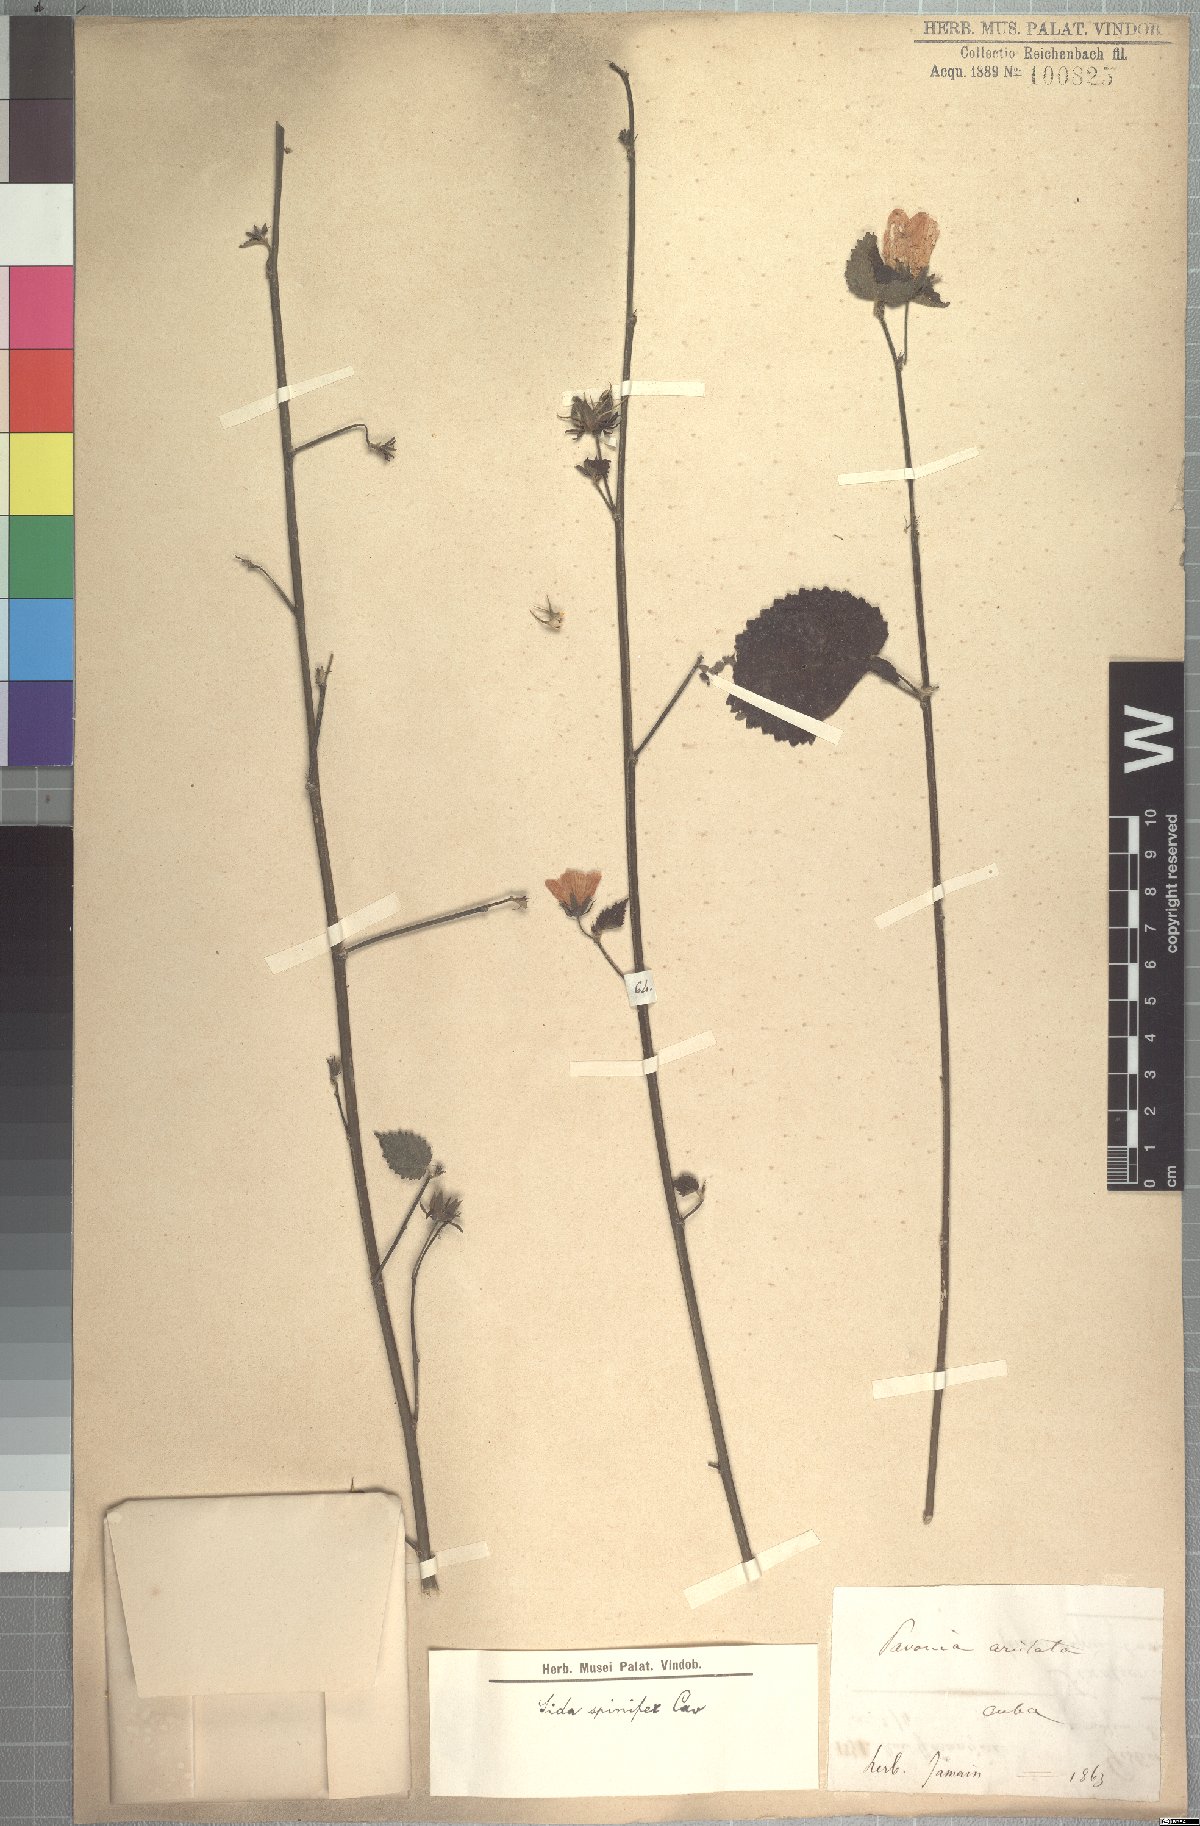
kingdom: Plantae
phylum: Tracheophyta
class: Magnoliopsida
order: Malvales
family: Malvaceae
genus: Pavonia
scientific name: Pavonia spinifex
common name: Ginger bush
